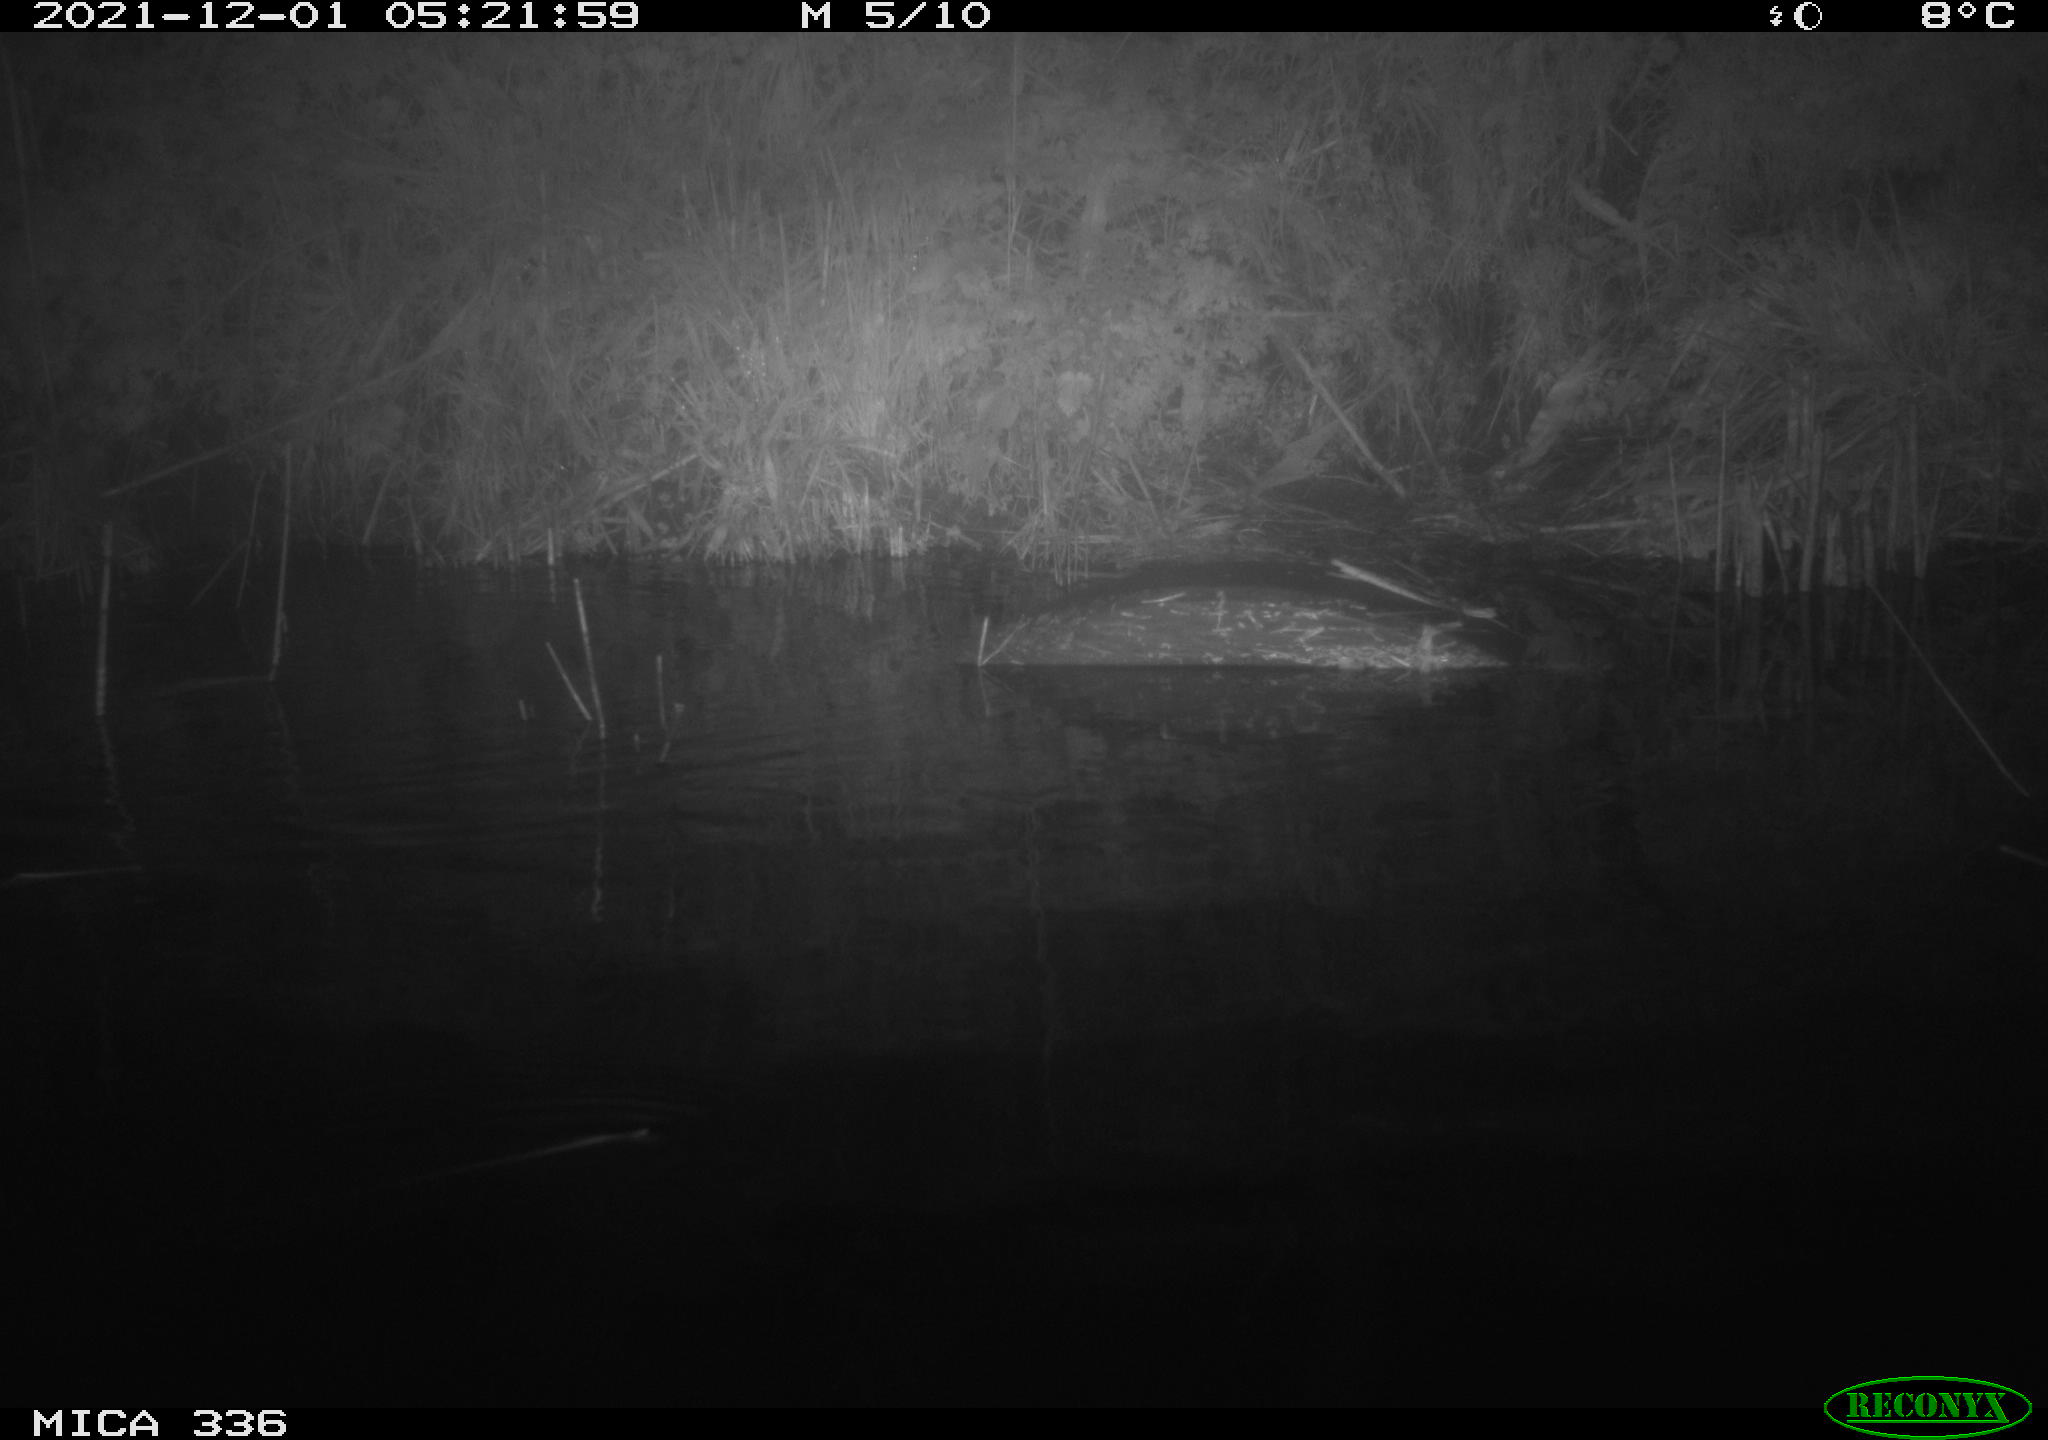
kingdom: Animalia
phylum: Chordata
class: Mammalia
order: Rodentia
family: Muridae
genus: Rattus
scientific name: Rattus norvegicus
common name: Brown rat
